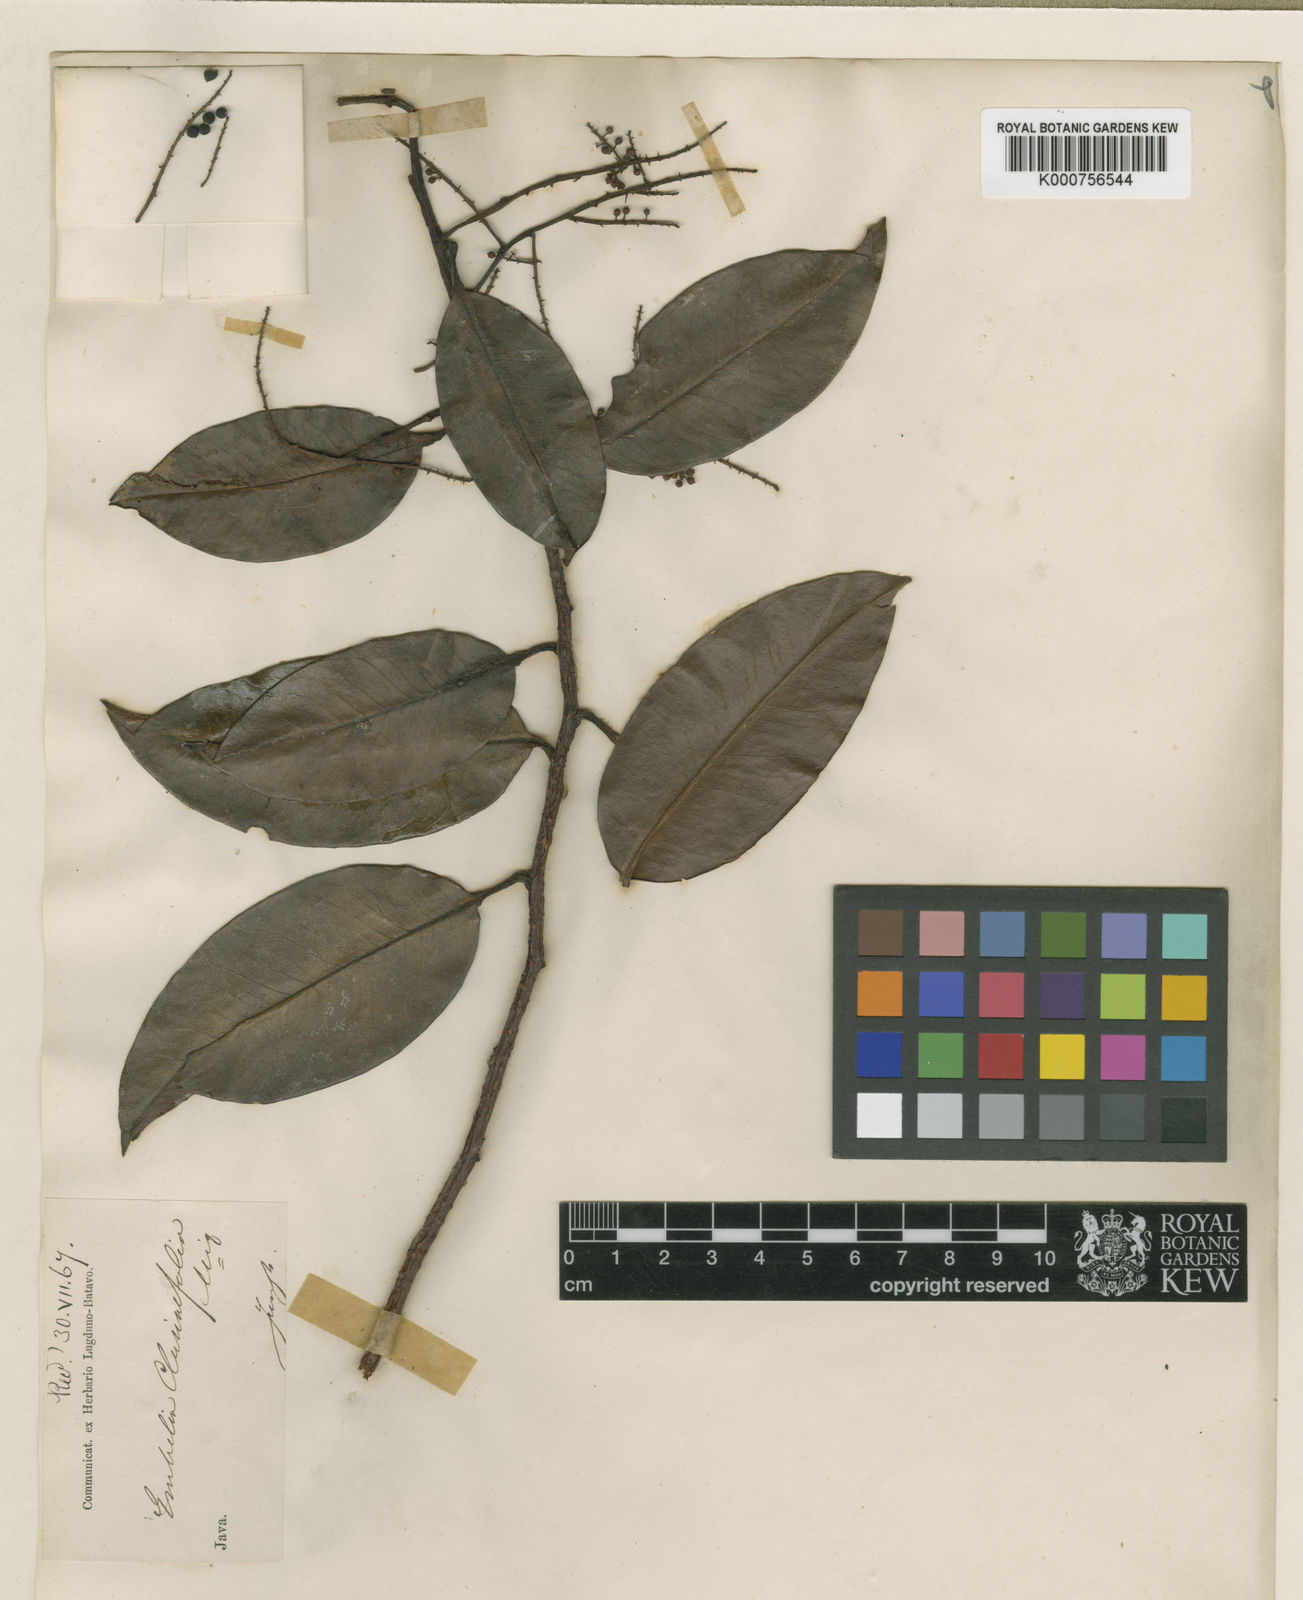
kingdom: Plantae
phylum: Tracheophyta
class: Magnoliopsida
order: Ericales
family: Primulaceae
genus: Embelia
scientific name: Embelia clusiifolia
